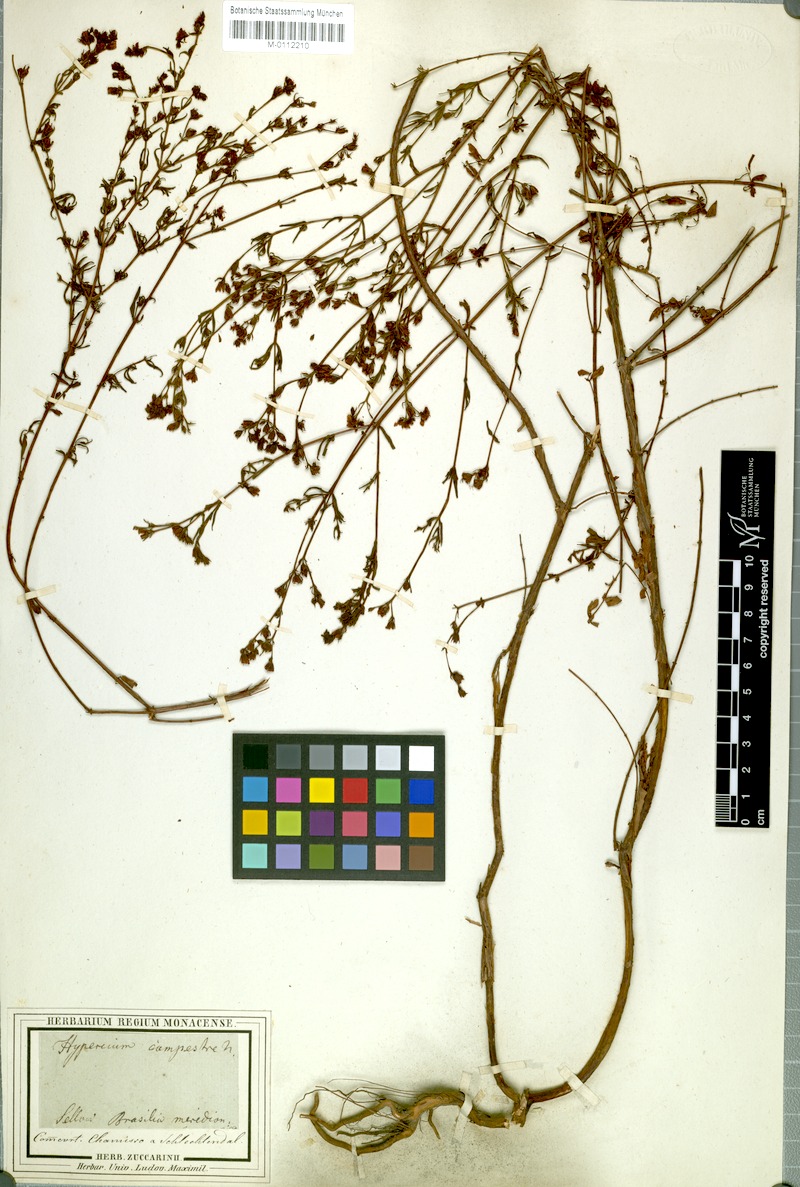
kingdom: Plantae
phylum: Tracheophyta
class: Magnoliopsida
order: Malpighiales
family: Hypericaceae
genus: Hypericum
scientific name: Hypericum campestre
